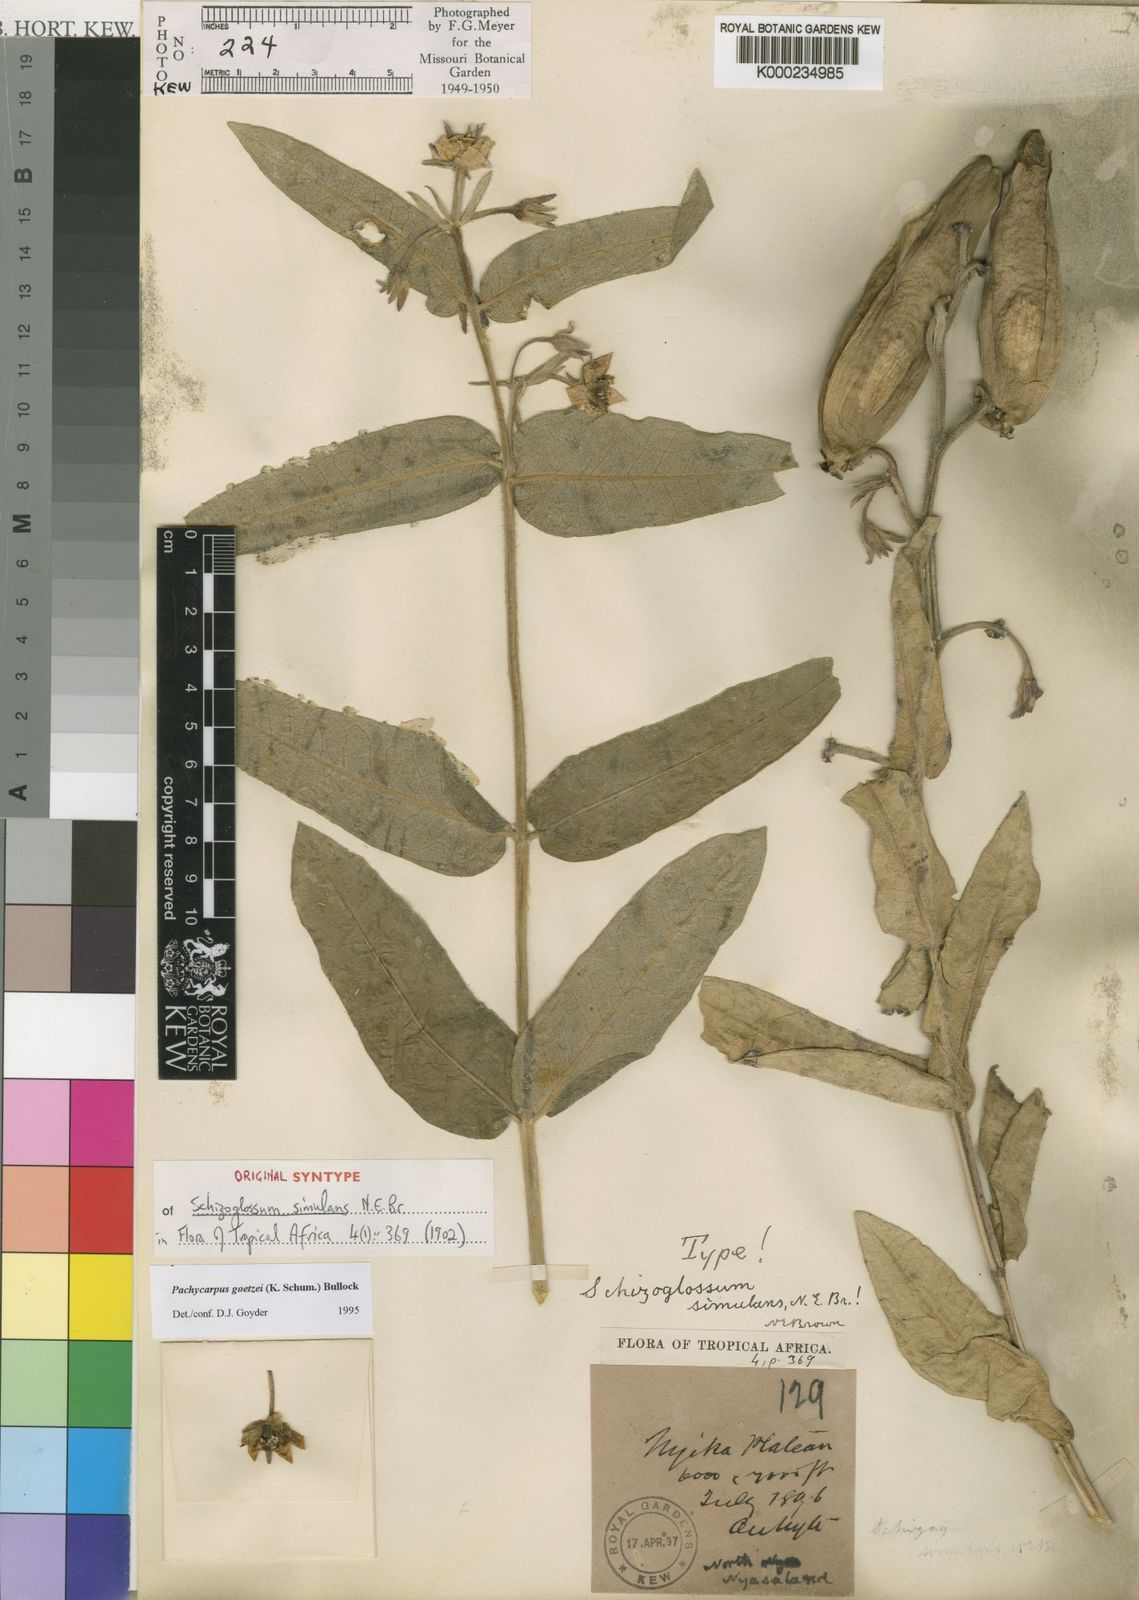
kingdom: Plantae
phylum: Tracheophyta
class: Magnoliopsida
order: Gentianales
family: Apocynaceae
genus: Pachycarpus
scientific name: Pachycarpus goetzei
